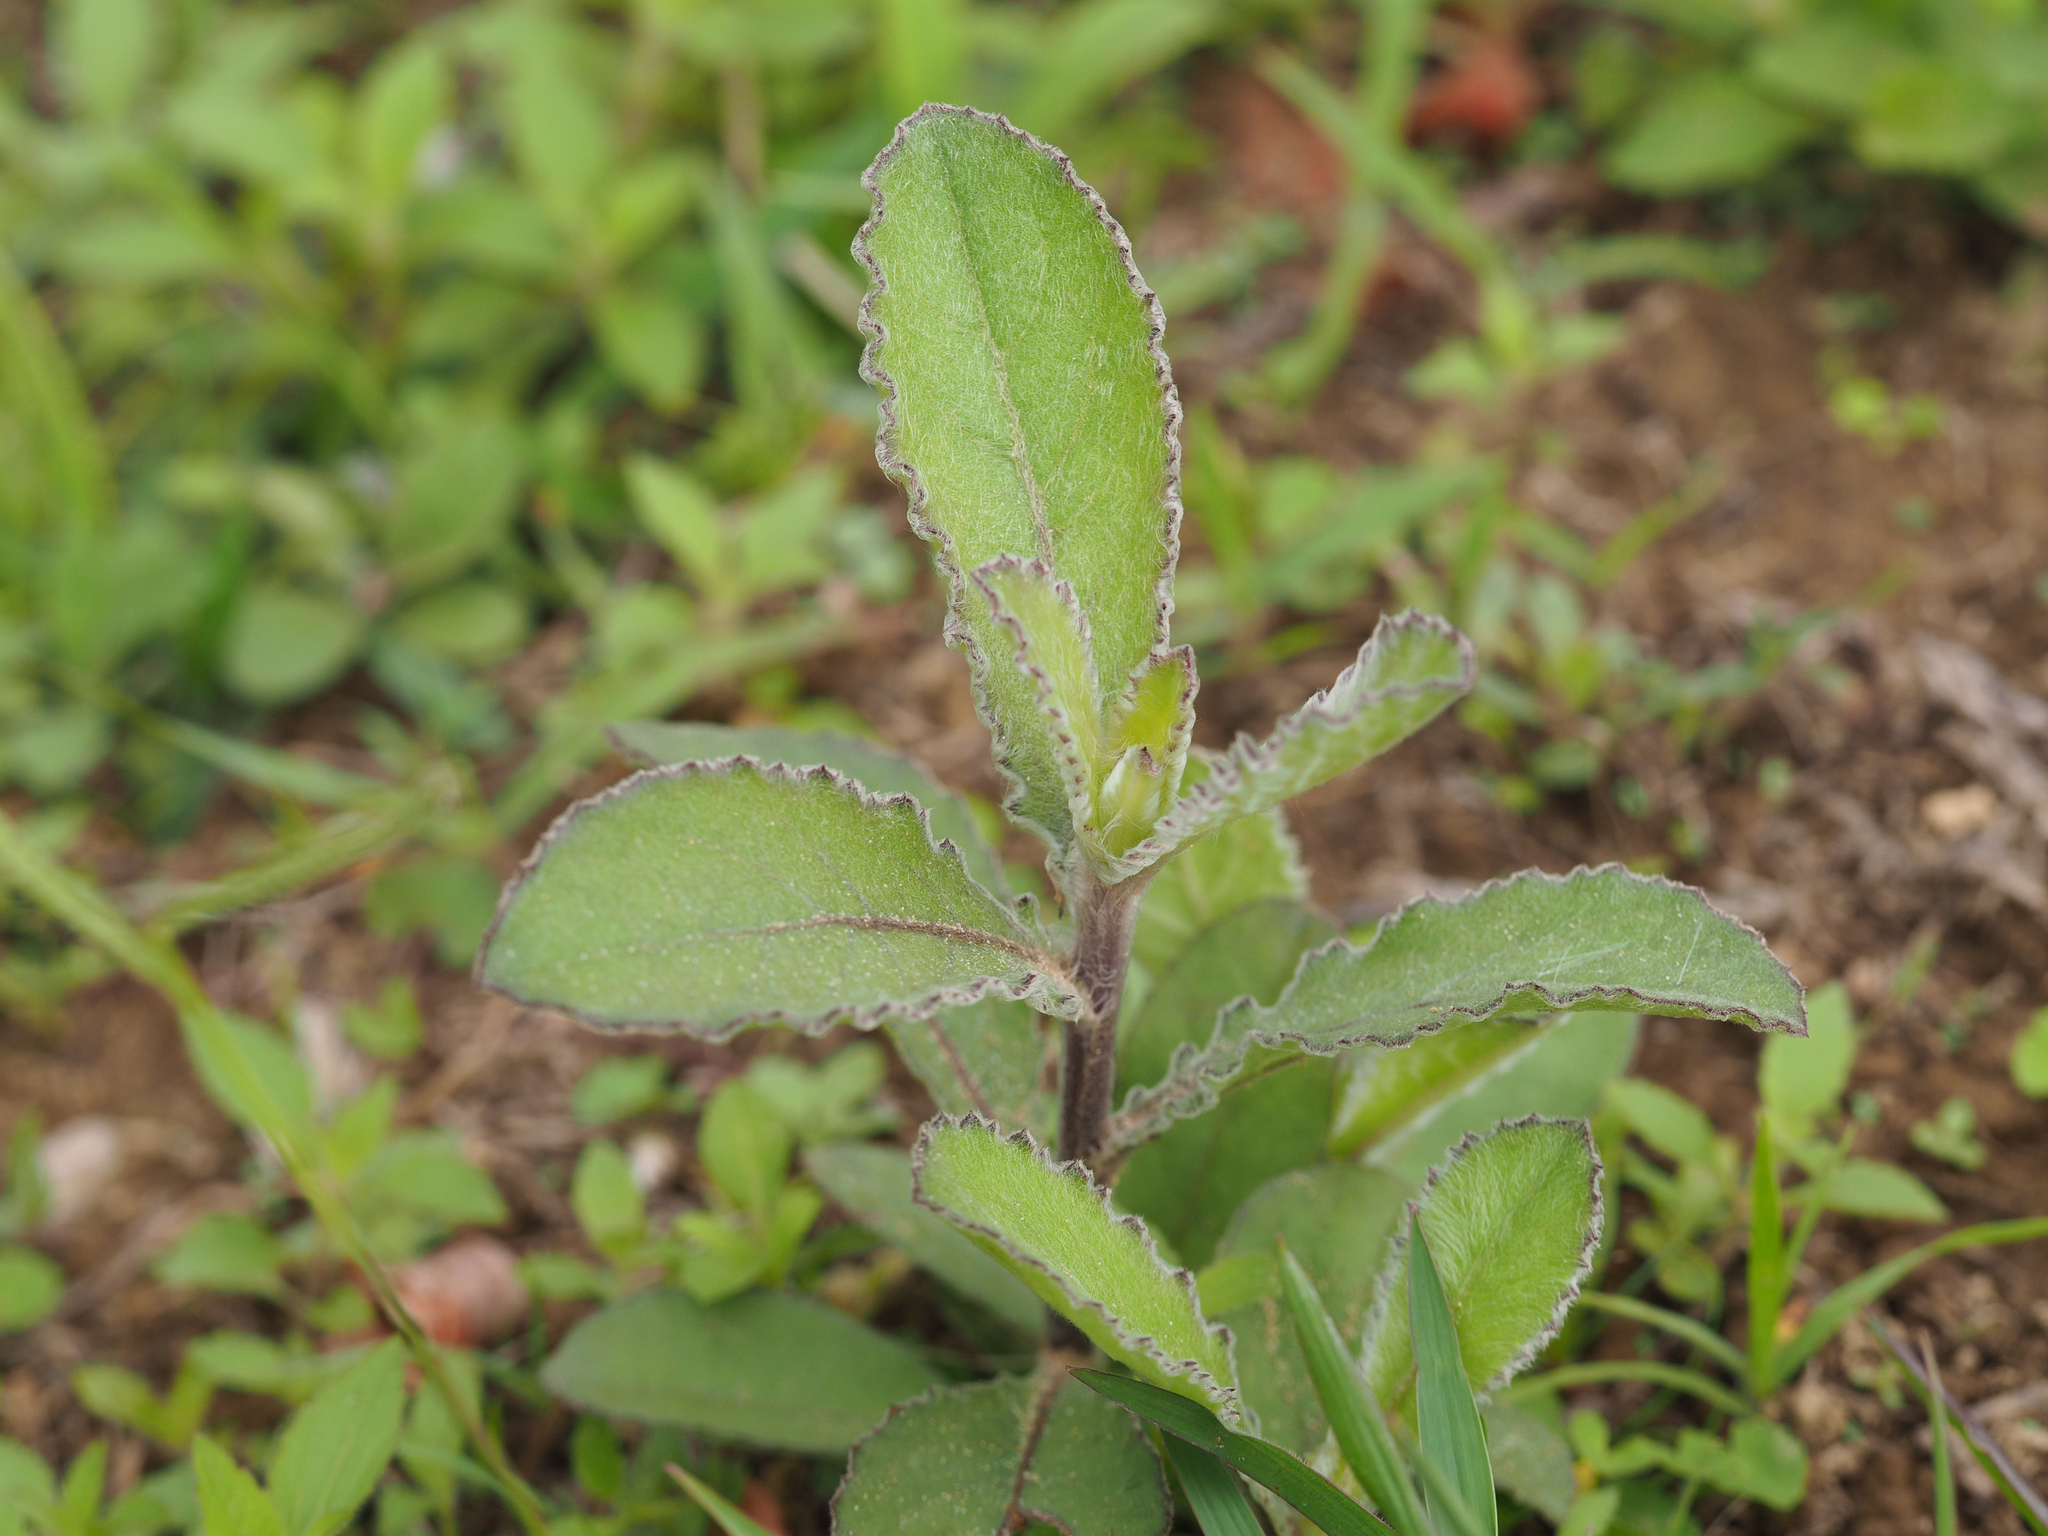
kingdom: Plantae
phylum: Tracheophyta
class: Magnoliopsida
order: Asterales
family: Asteraceae
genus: Blumea
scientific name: Blumea lacera
